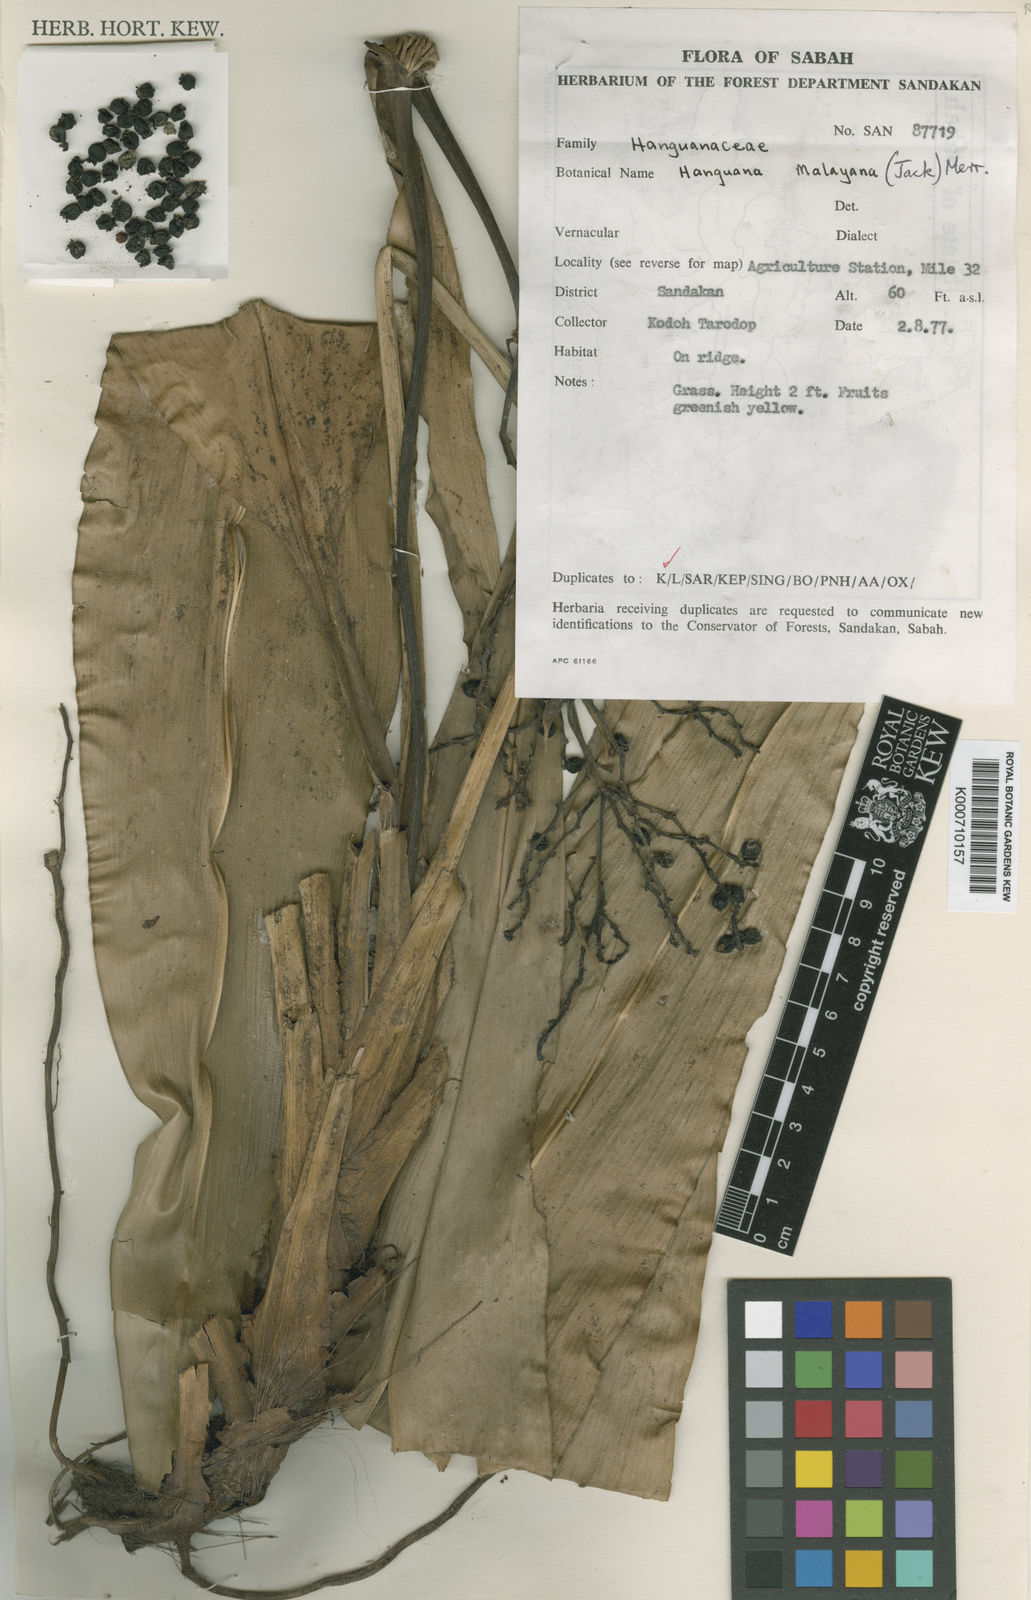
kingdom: Plantae
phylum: Tracheophyta
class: Liliopsida
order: Commelinales
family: Hanguanaceae
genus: Hanguana
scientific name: Hanguana malayana
